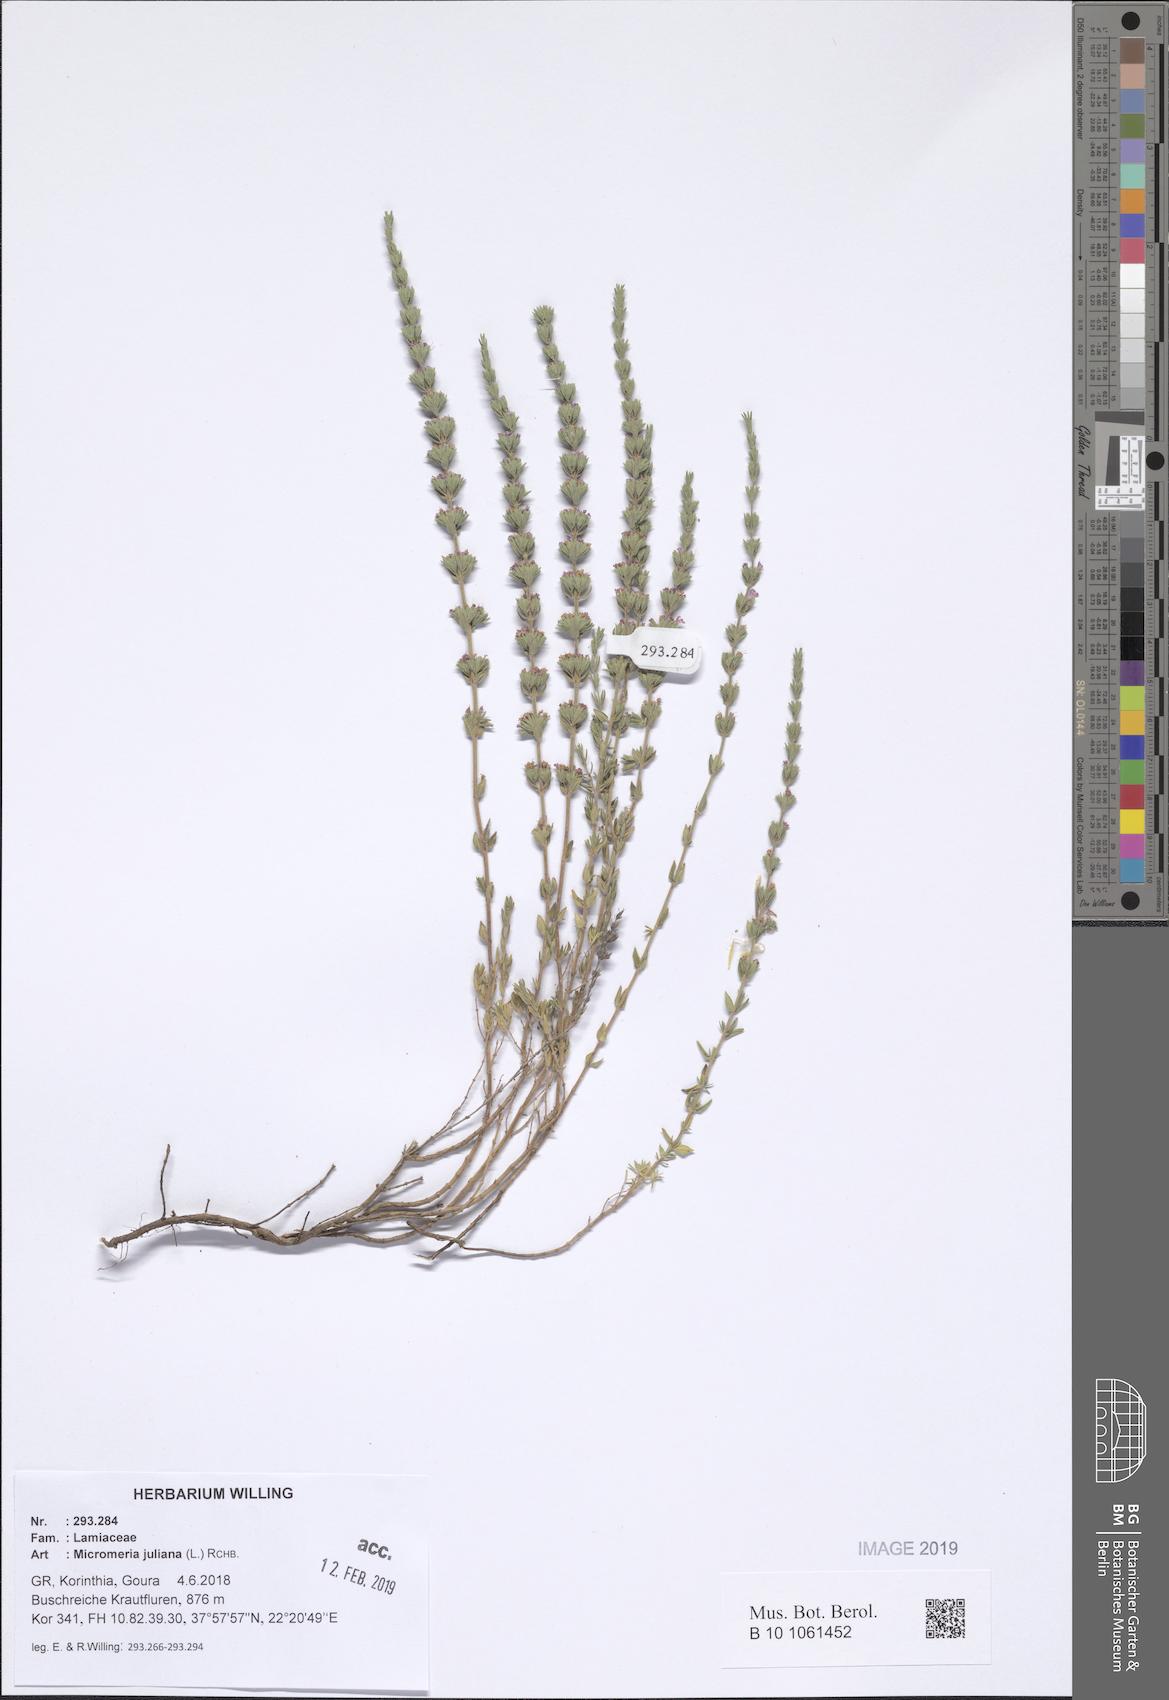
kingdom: Plantae
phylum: Tracheophyta
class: Magnoliopsida
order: Lamiales
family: Lamiaceae
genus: Micromeria
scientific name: Micromeria juliana
